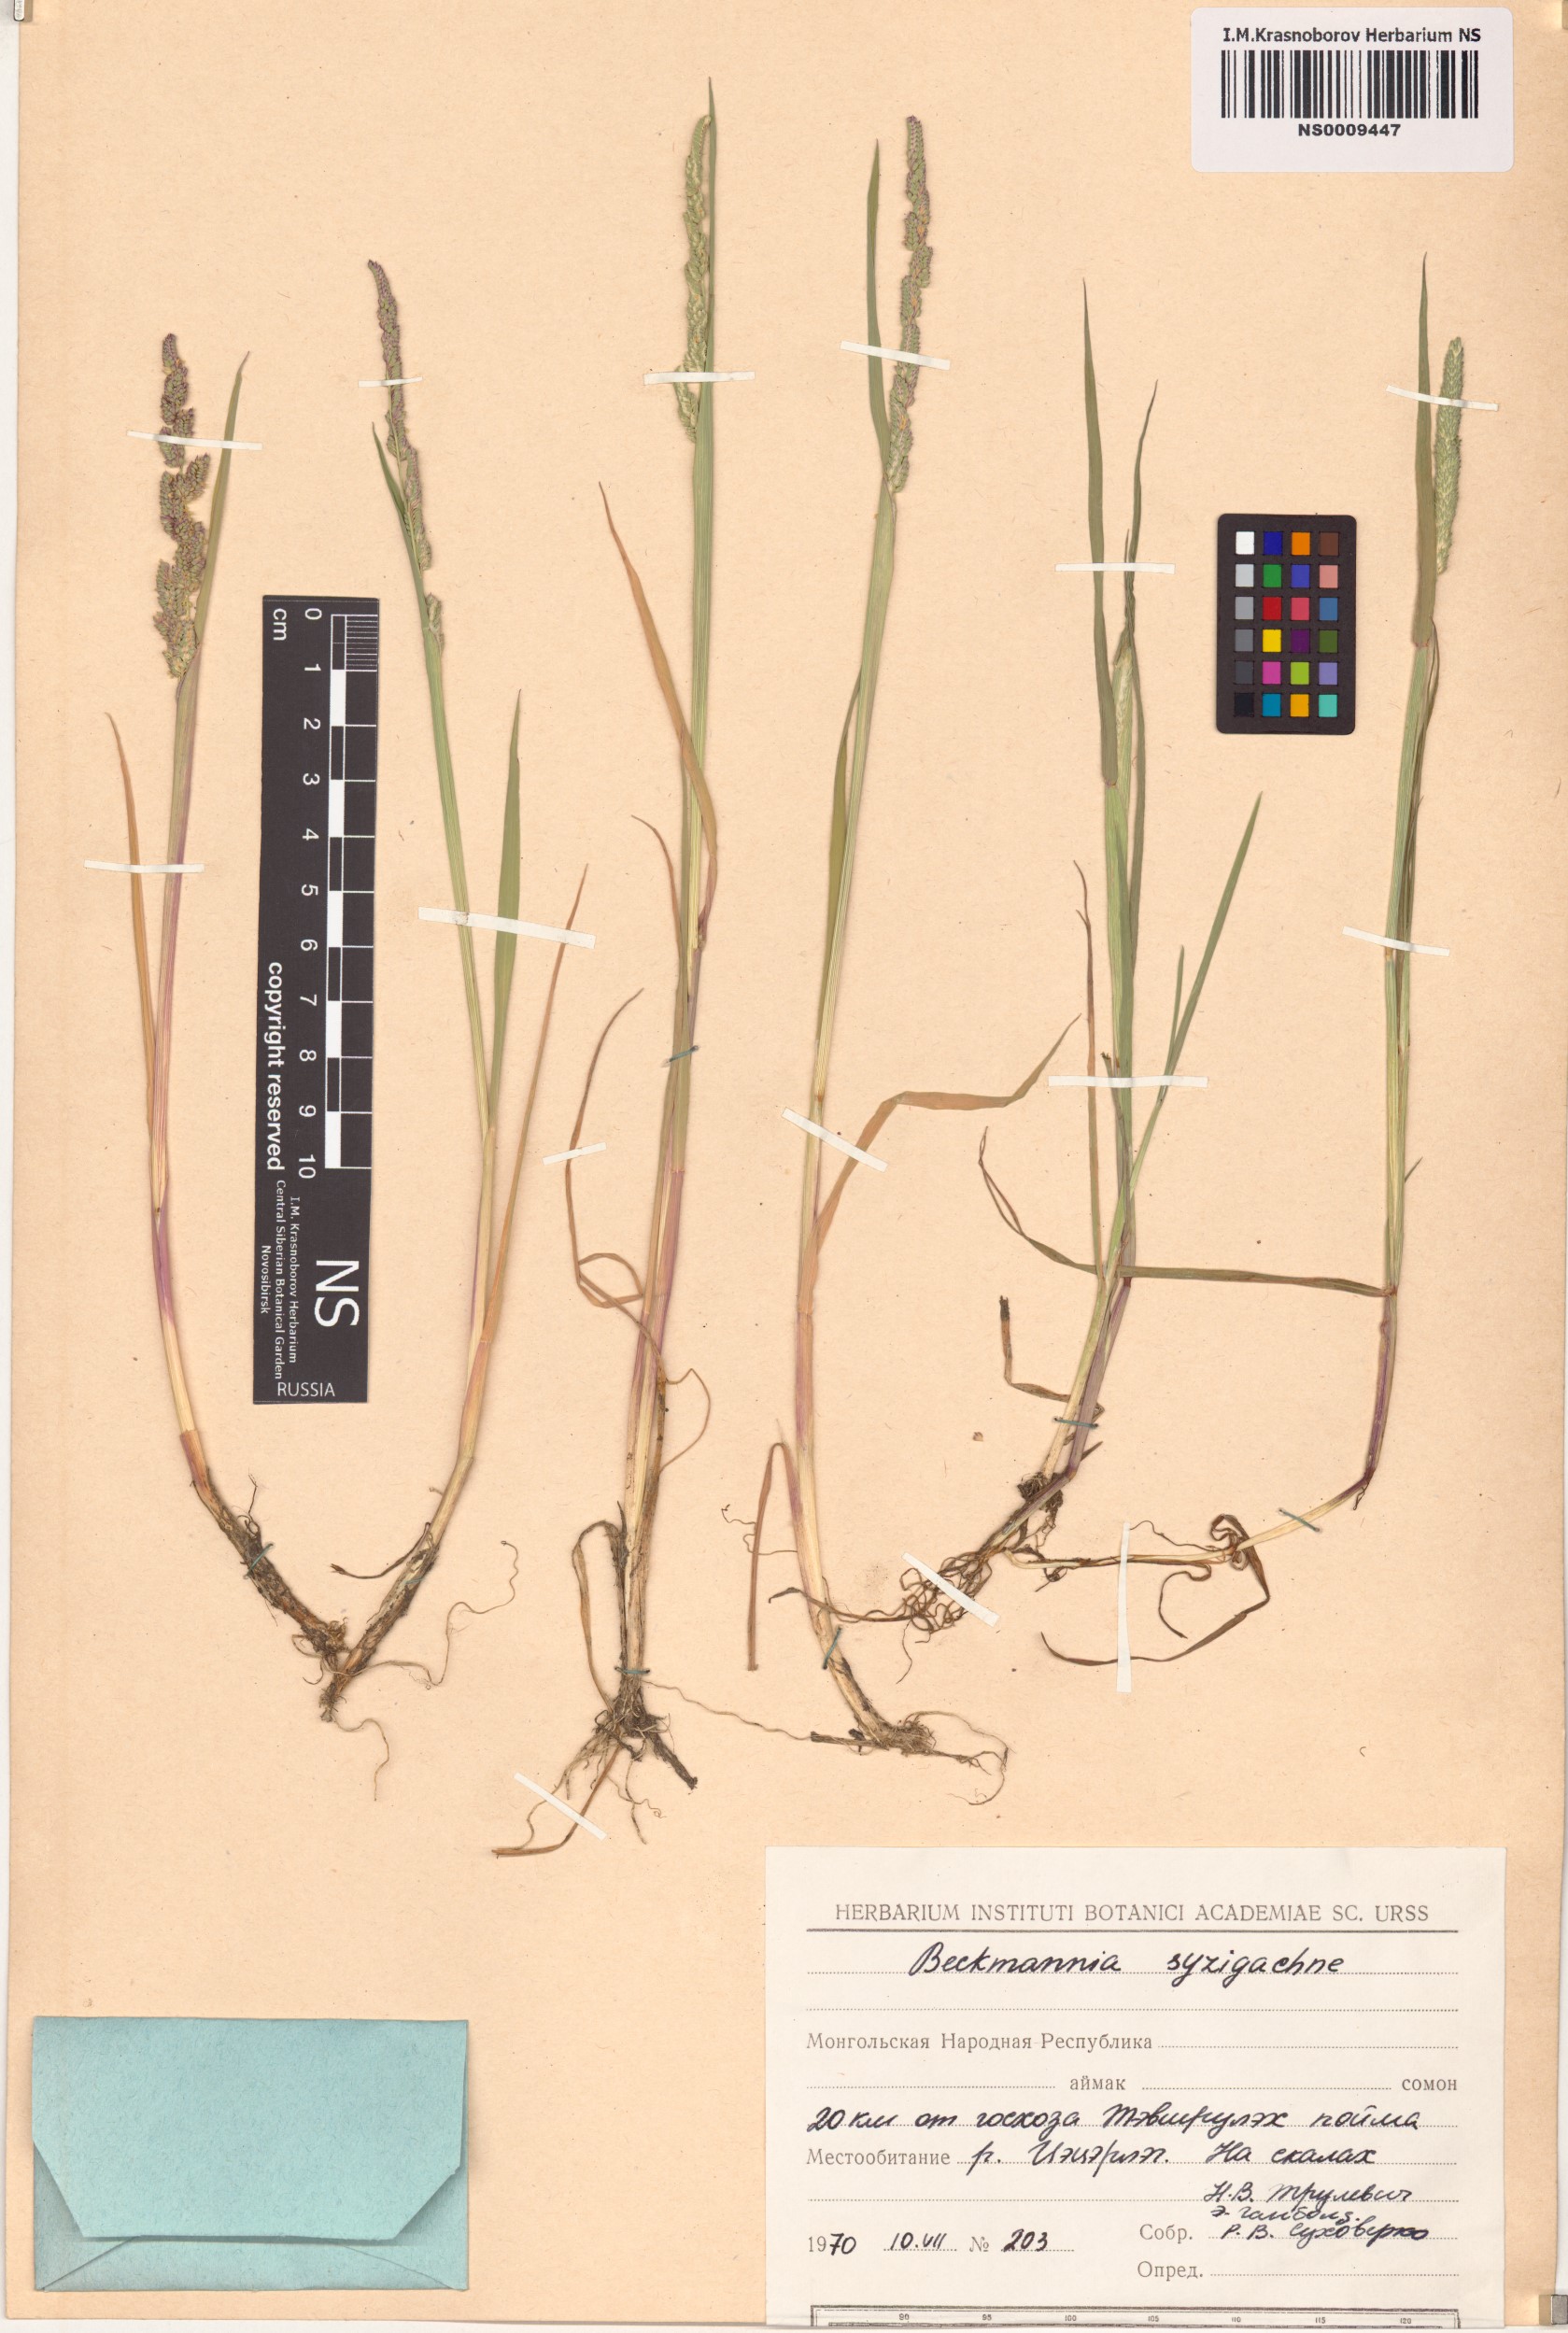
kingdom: Plantae
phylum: Tracheophyta
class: Liliopsida
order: Poales
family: Poaceae
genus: Beckmannia
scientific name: Beckmannia syzigachne
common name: American slough-grass
